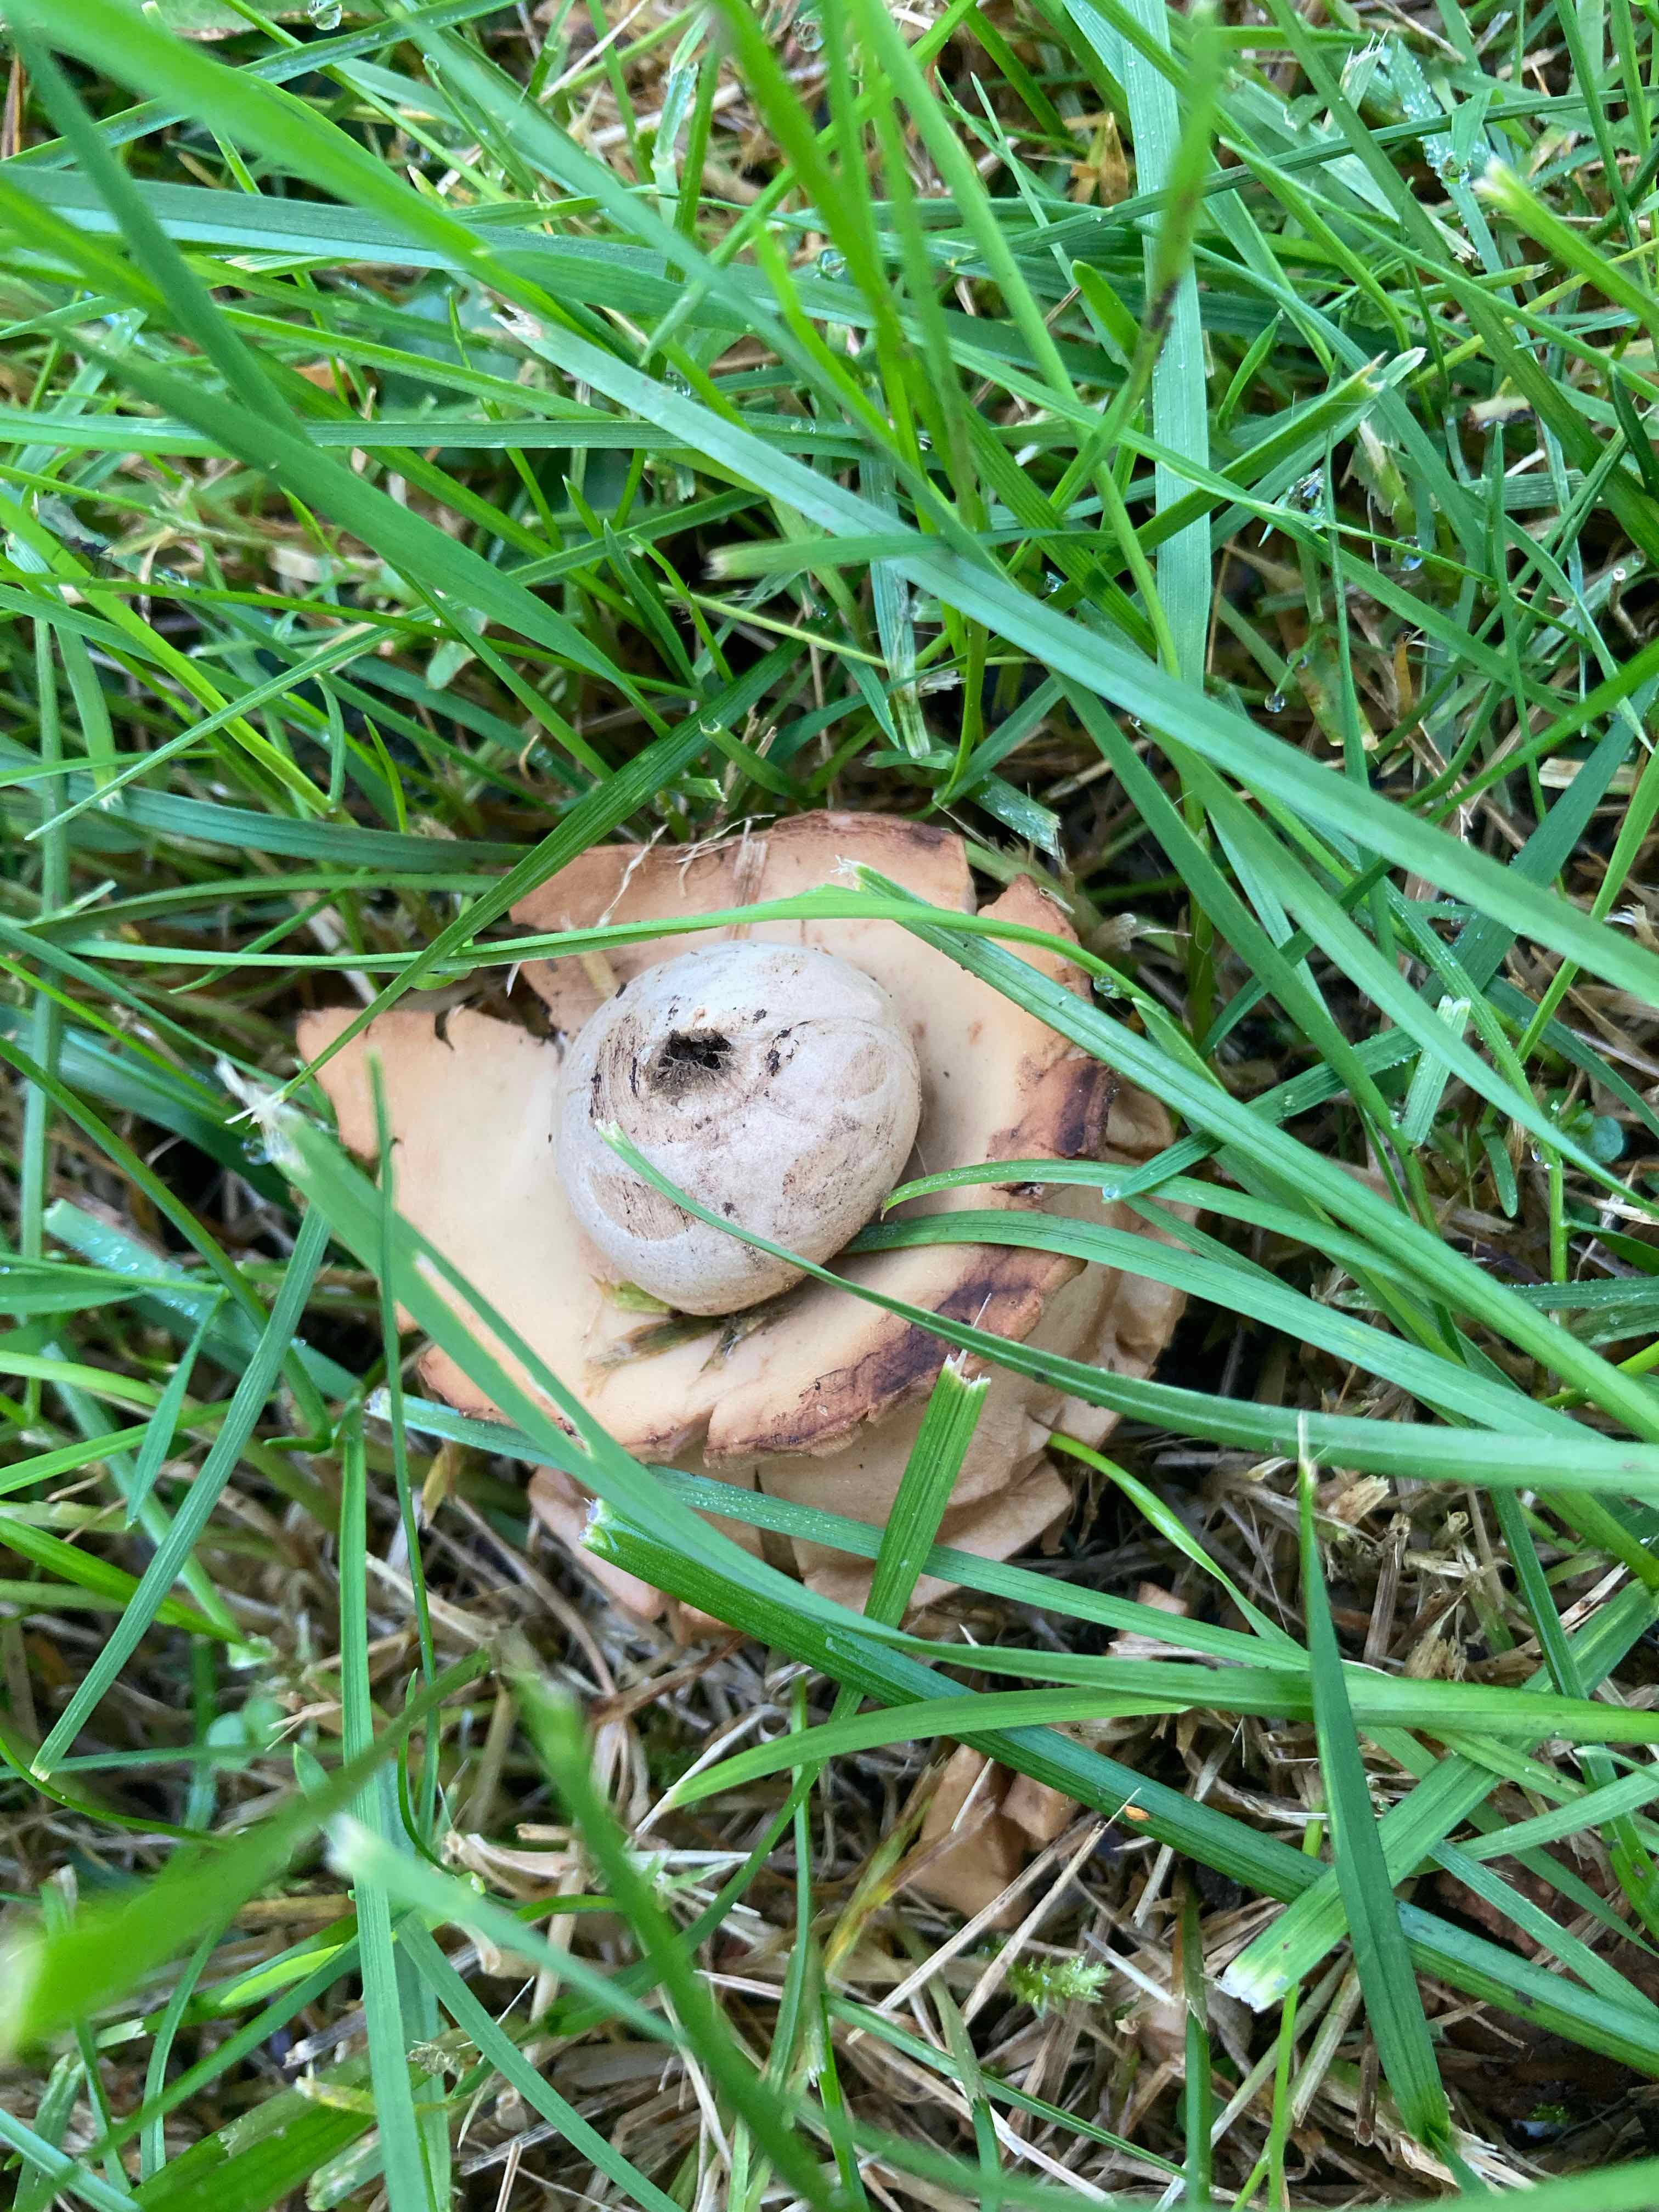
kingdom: Fungi
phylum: Basidiomycota
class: Agaricomycetes
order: Geastrales
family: Geastraceae
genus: Geastrum
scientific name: Geastrum michelianum
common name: kødet stjernebold
